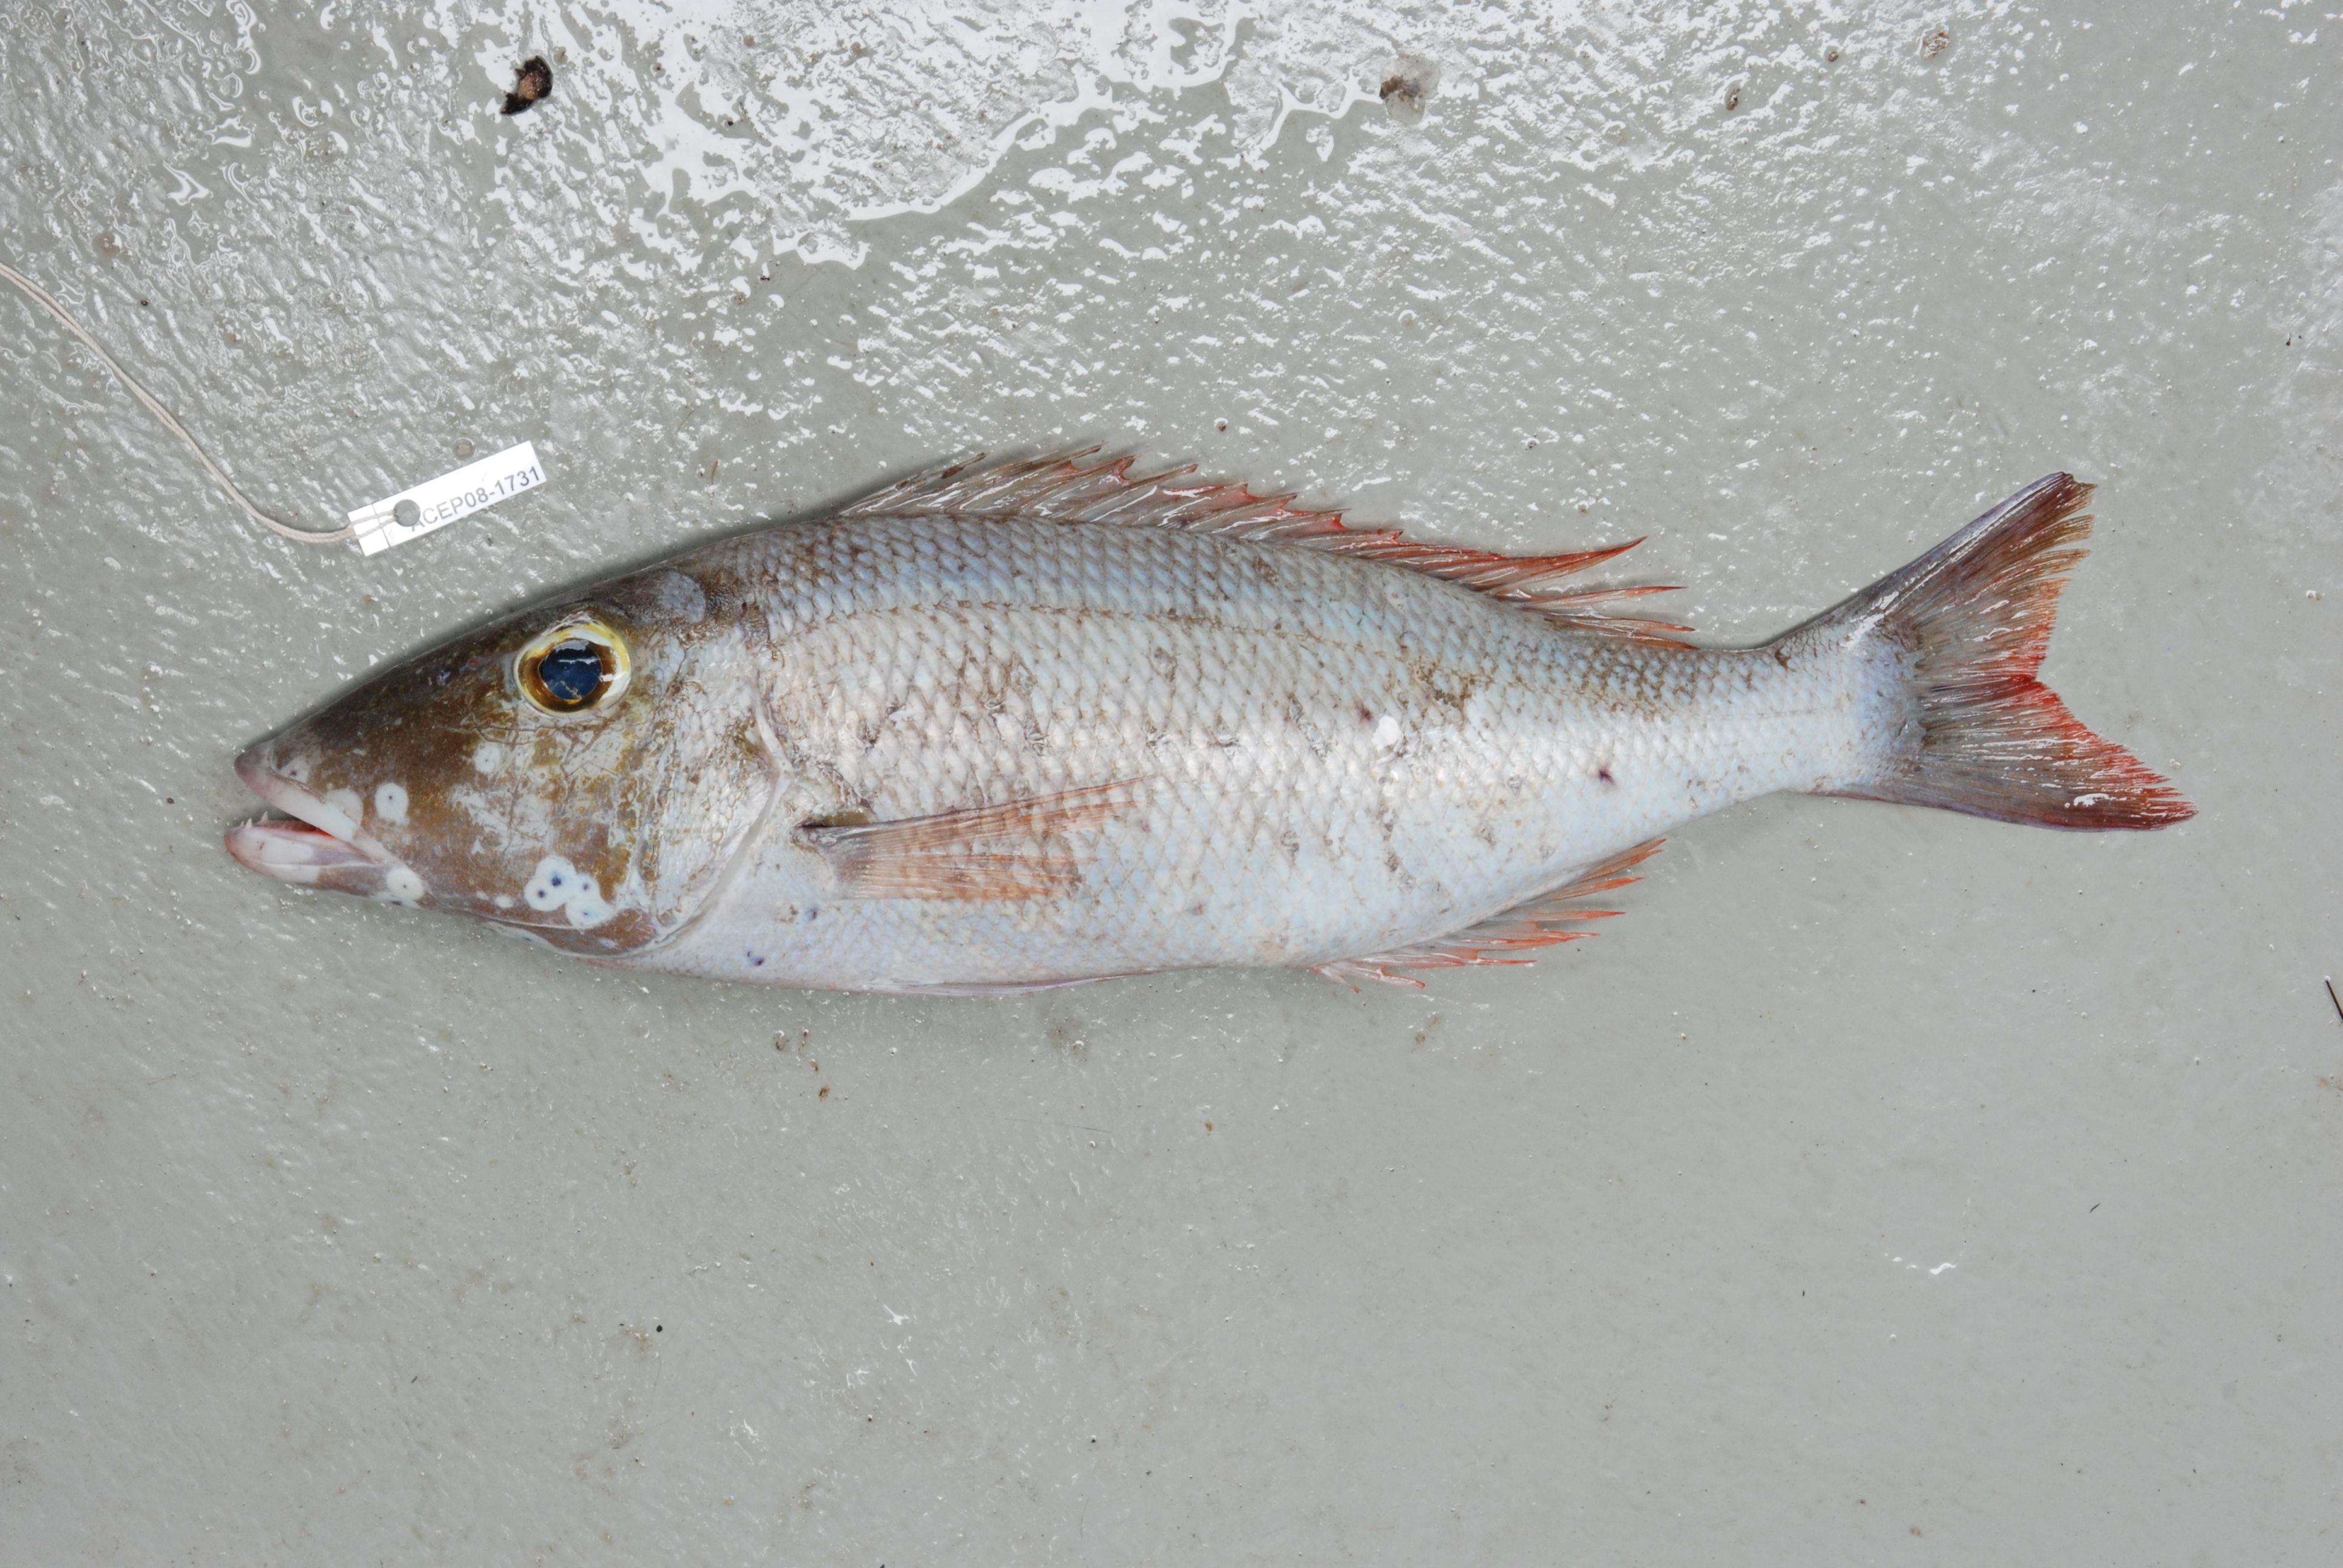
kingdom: Animalia
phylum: Chordata
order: Perciformes
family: Lethrinidae
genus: Lethrinus
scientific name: Lethrinus
